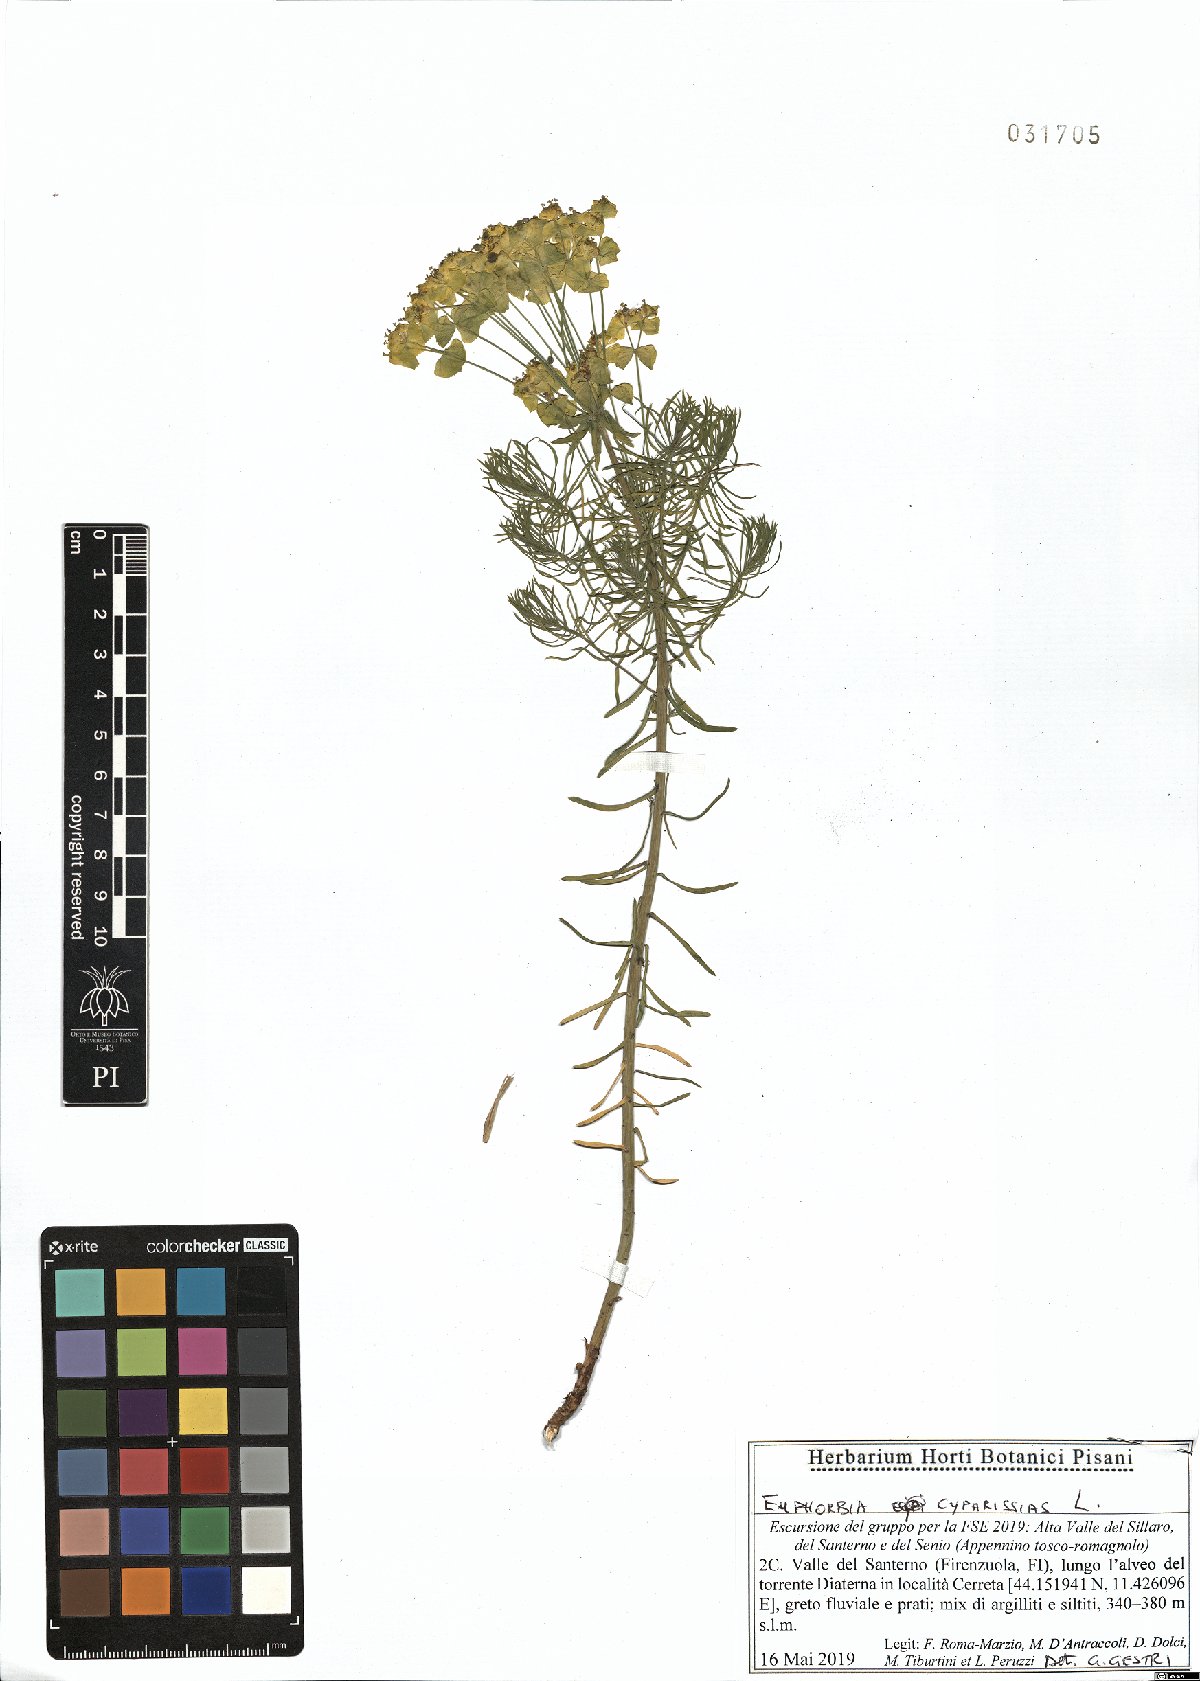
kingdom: Plantae
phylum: Tracheophyta
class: Magnoliopsida
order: Malpighiales
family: Euphorbiaceae
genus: Euphorbia
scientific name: Euphorbia cyparissias
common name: Cypress spurge
